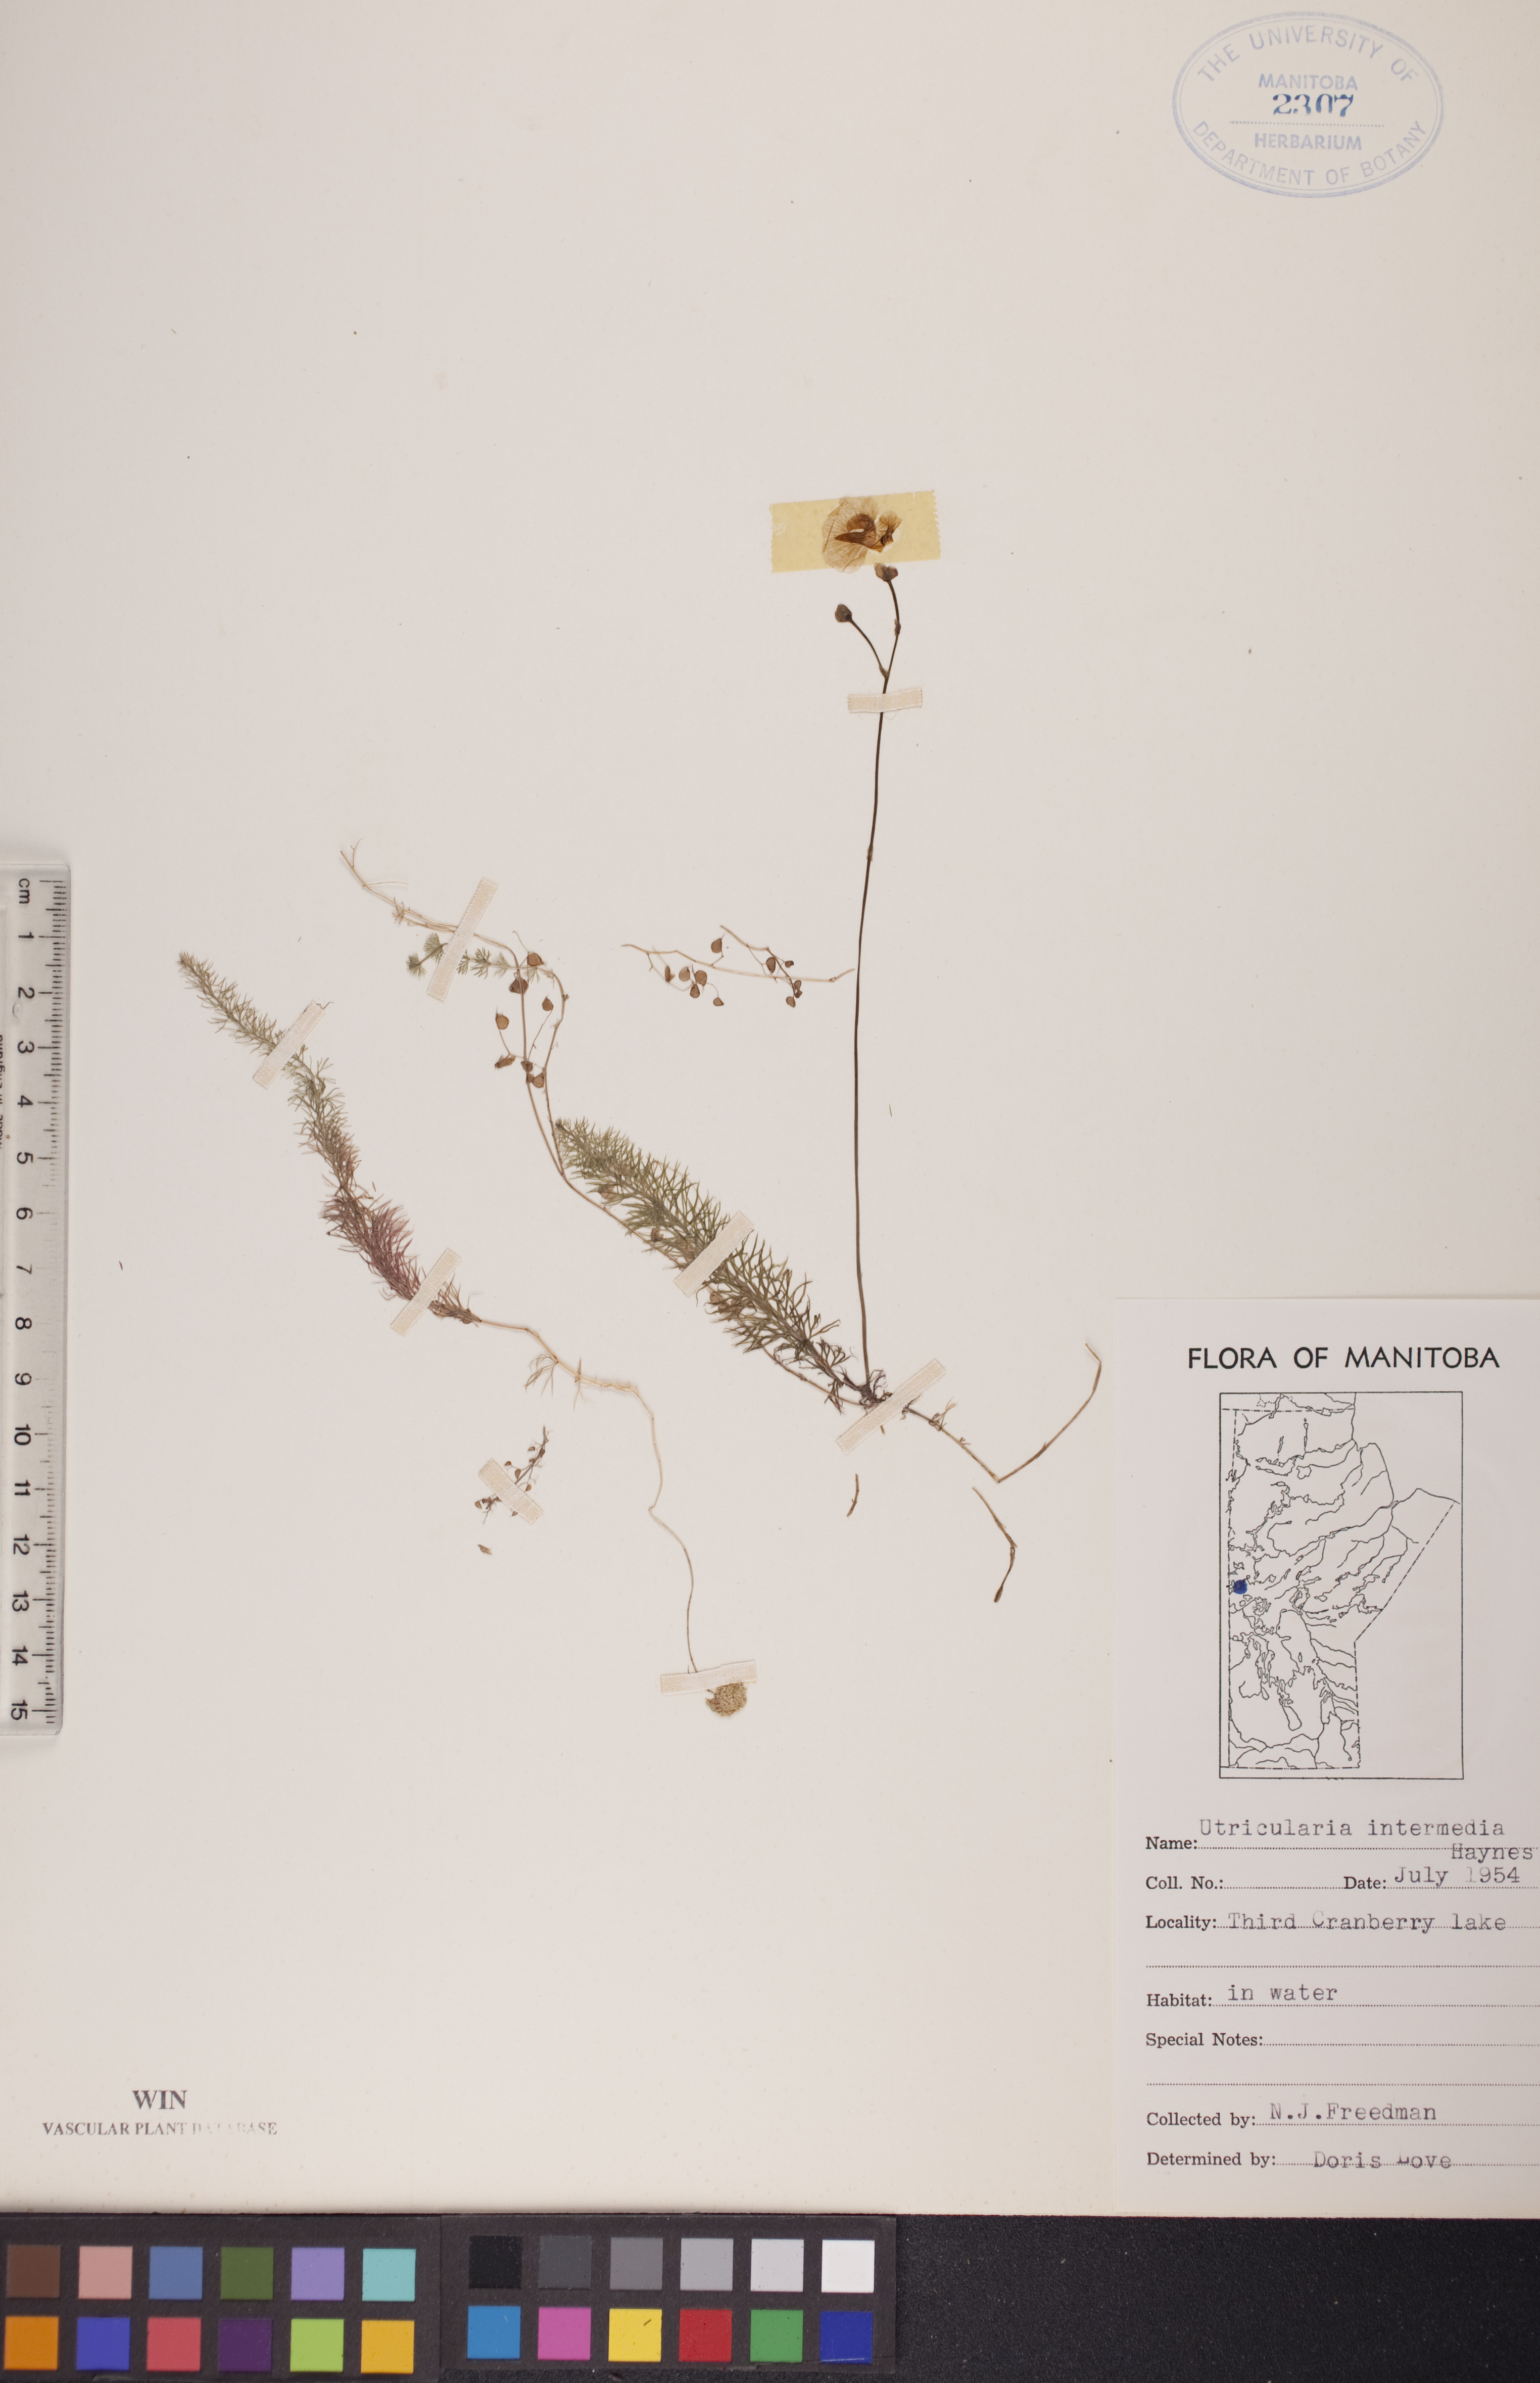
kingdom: Plantae
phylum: Tracheophyta
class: Magnoliopsida
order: Lamiales
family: Lentibulariaceae
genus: Utricularia
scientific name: Utricularia intermedia
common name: Intermediate bladderwort
